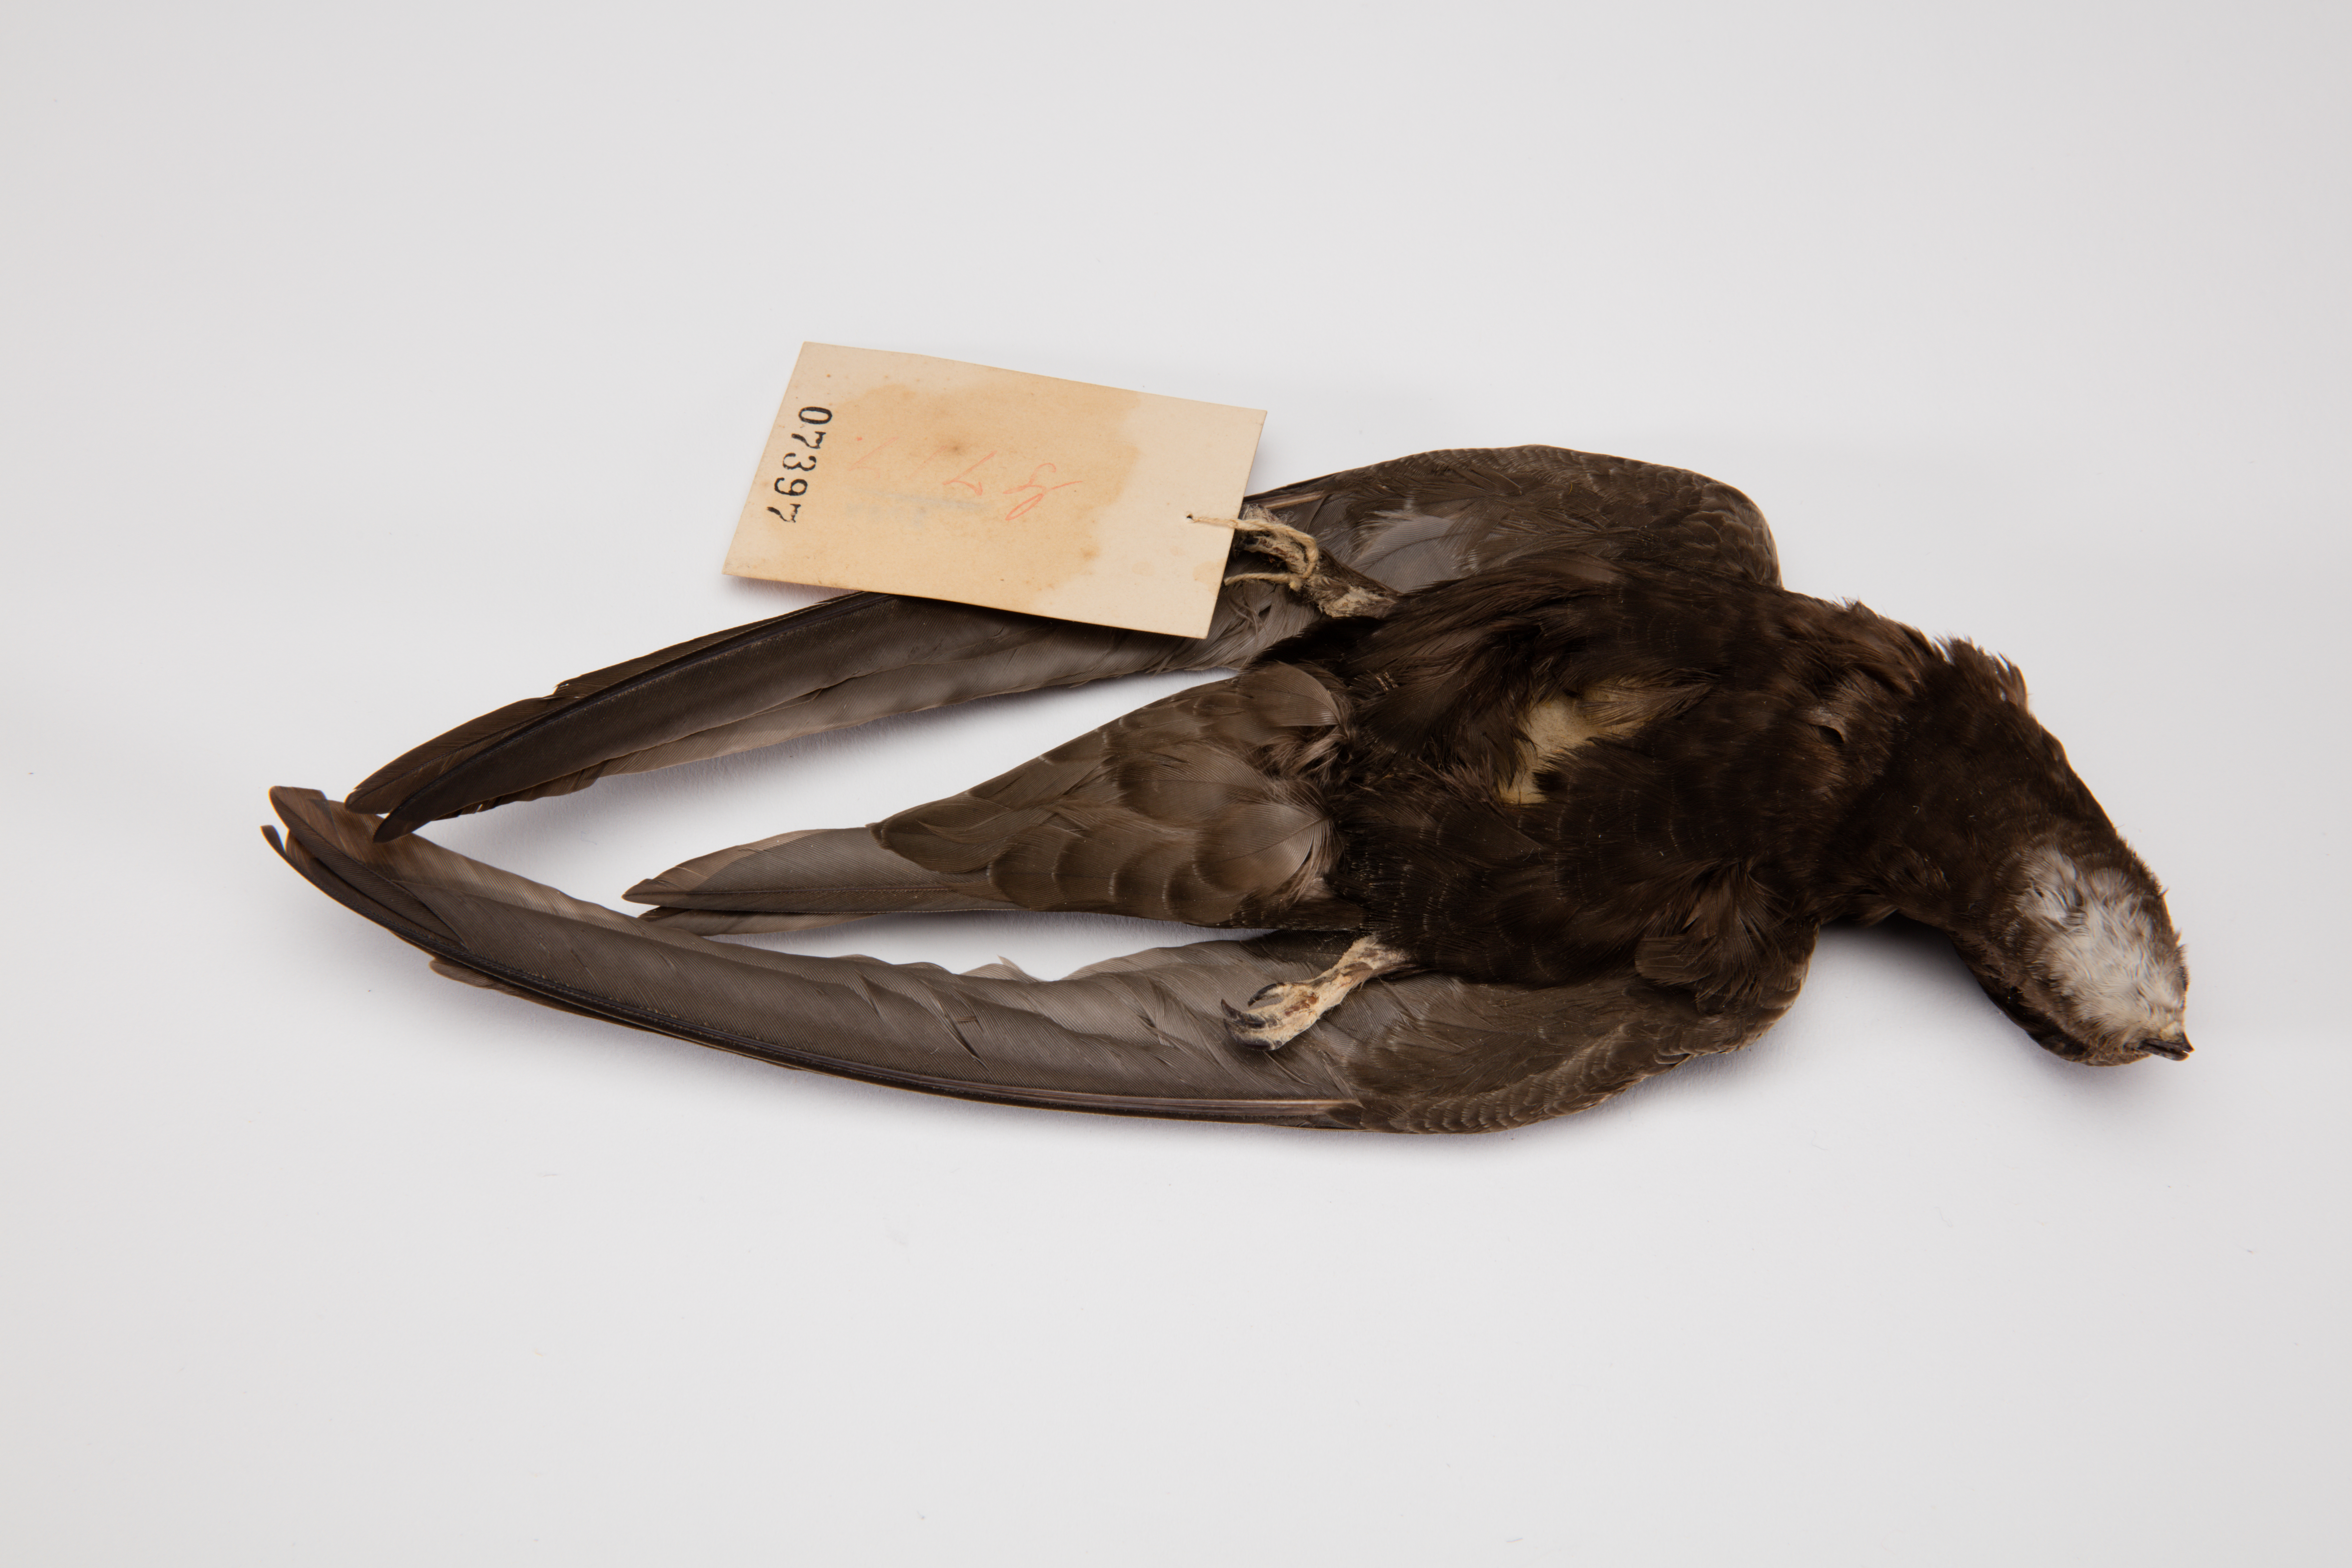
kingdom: Animalia
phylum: Chordata
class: Aves
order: Apodiformes
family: Apodidae
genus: Apus
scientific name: Apus apus
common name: Common swift
